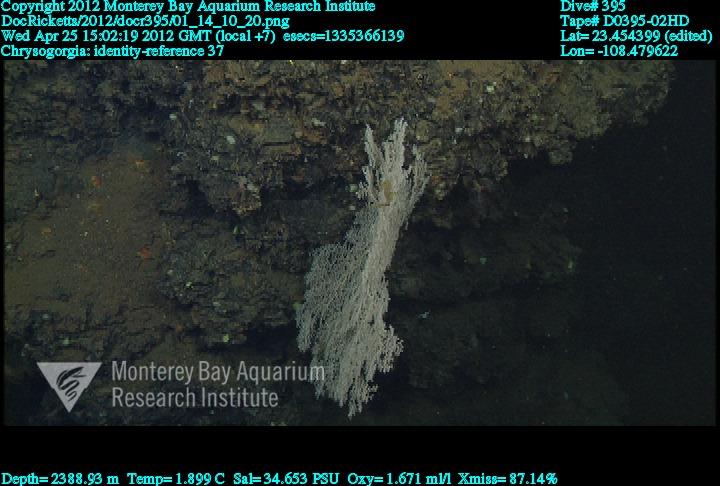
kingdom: Animalia
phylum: Cnidaria
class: Anthozoa
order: Scleralcyonacea
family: Chrysogorgiidae
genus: Chrysogorgia
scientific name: Chrysogorgia
